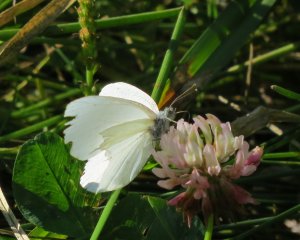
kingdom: Animalia
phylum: Arthropoda
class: Insecta
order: Lepidoptera
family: Pieridae
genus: Pieris
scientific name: Pieris oleracea
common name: Mustard White
